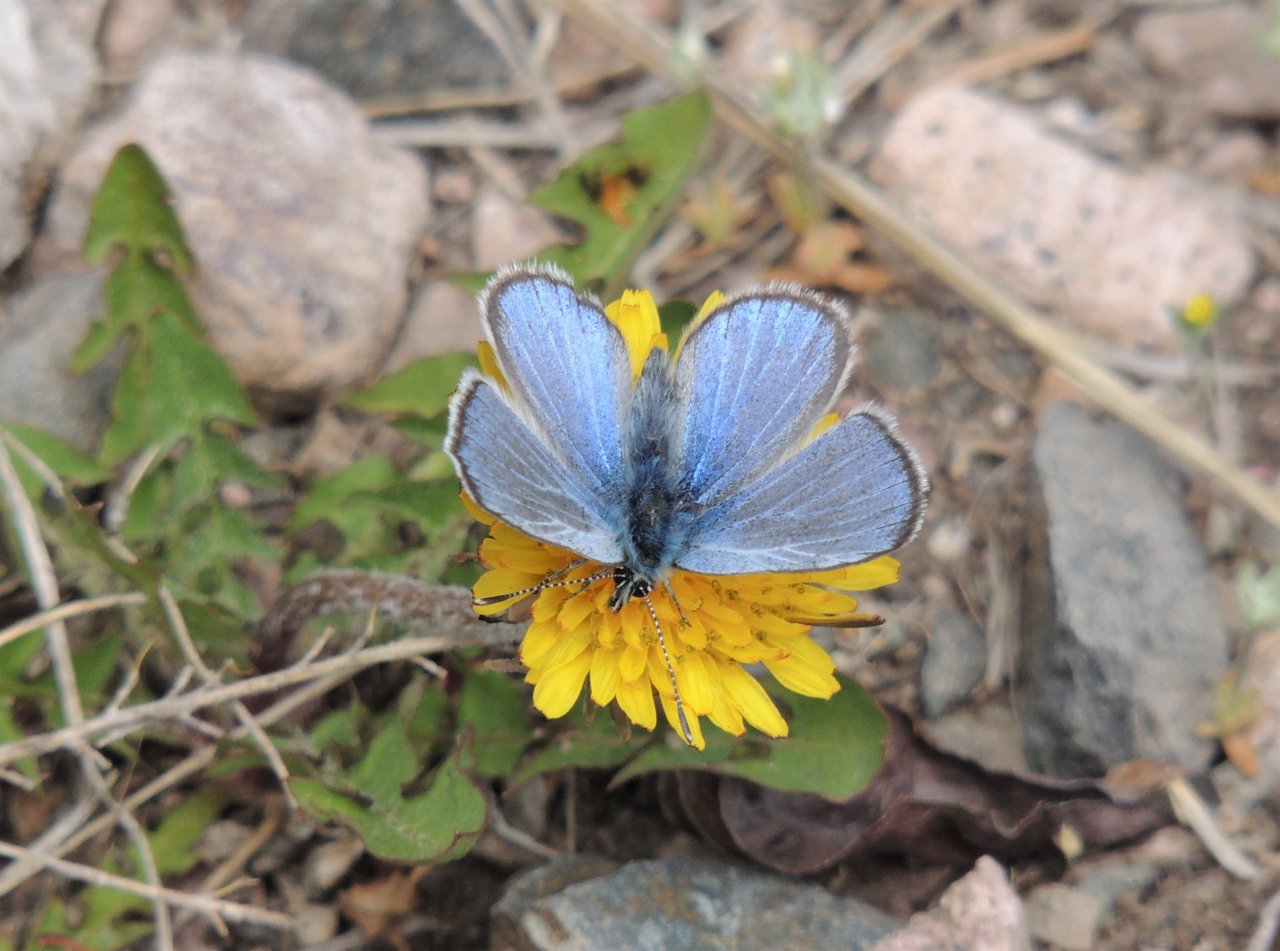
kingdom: Animalia
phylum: Arthropoda
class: Insecta
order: Lepidoptera
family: Lycaenidae
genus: Glaucopsyche
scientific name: Glaucopsyche lygdamus
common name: Silvery Blue
